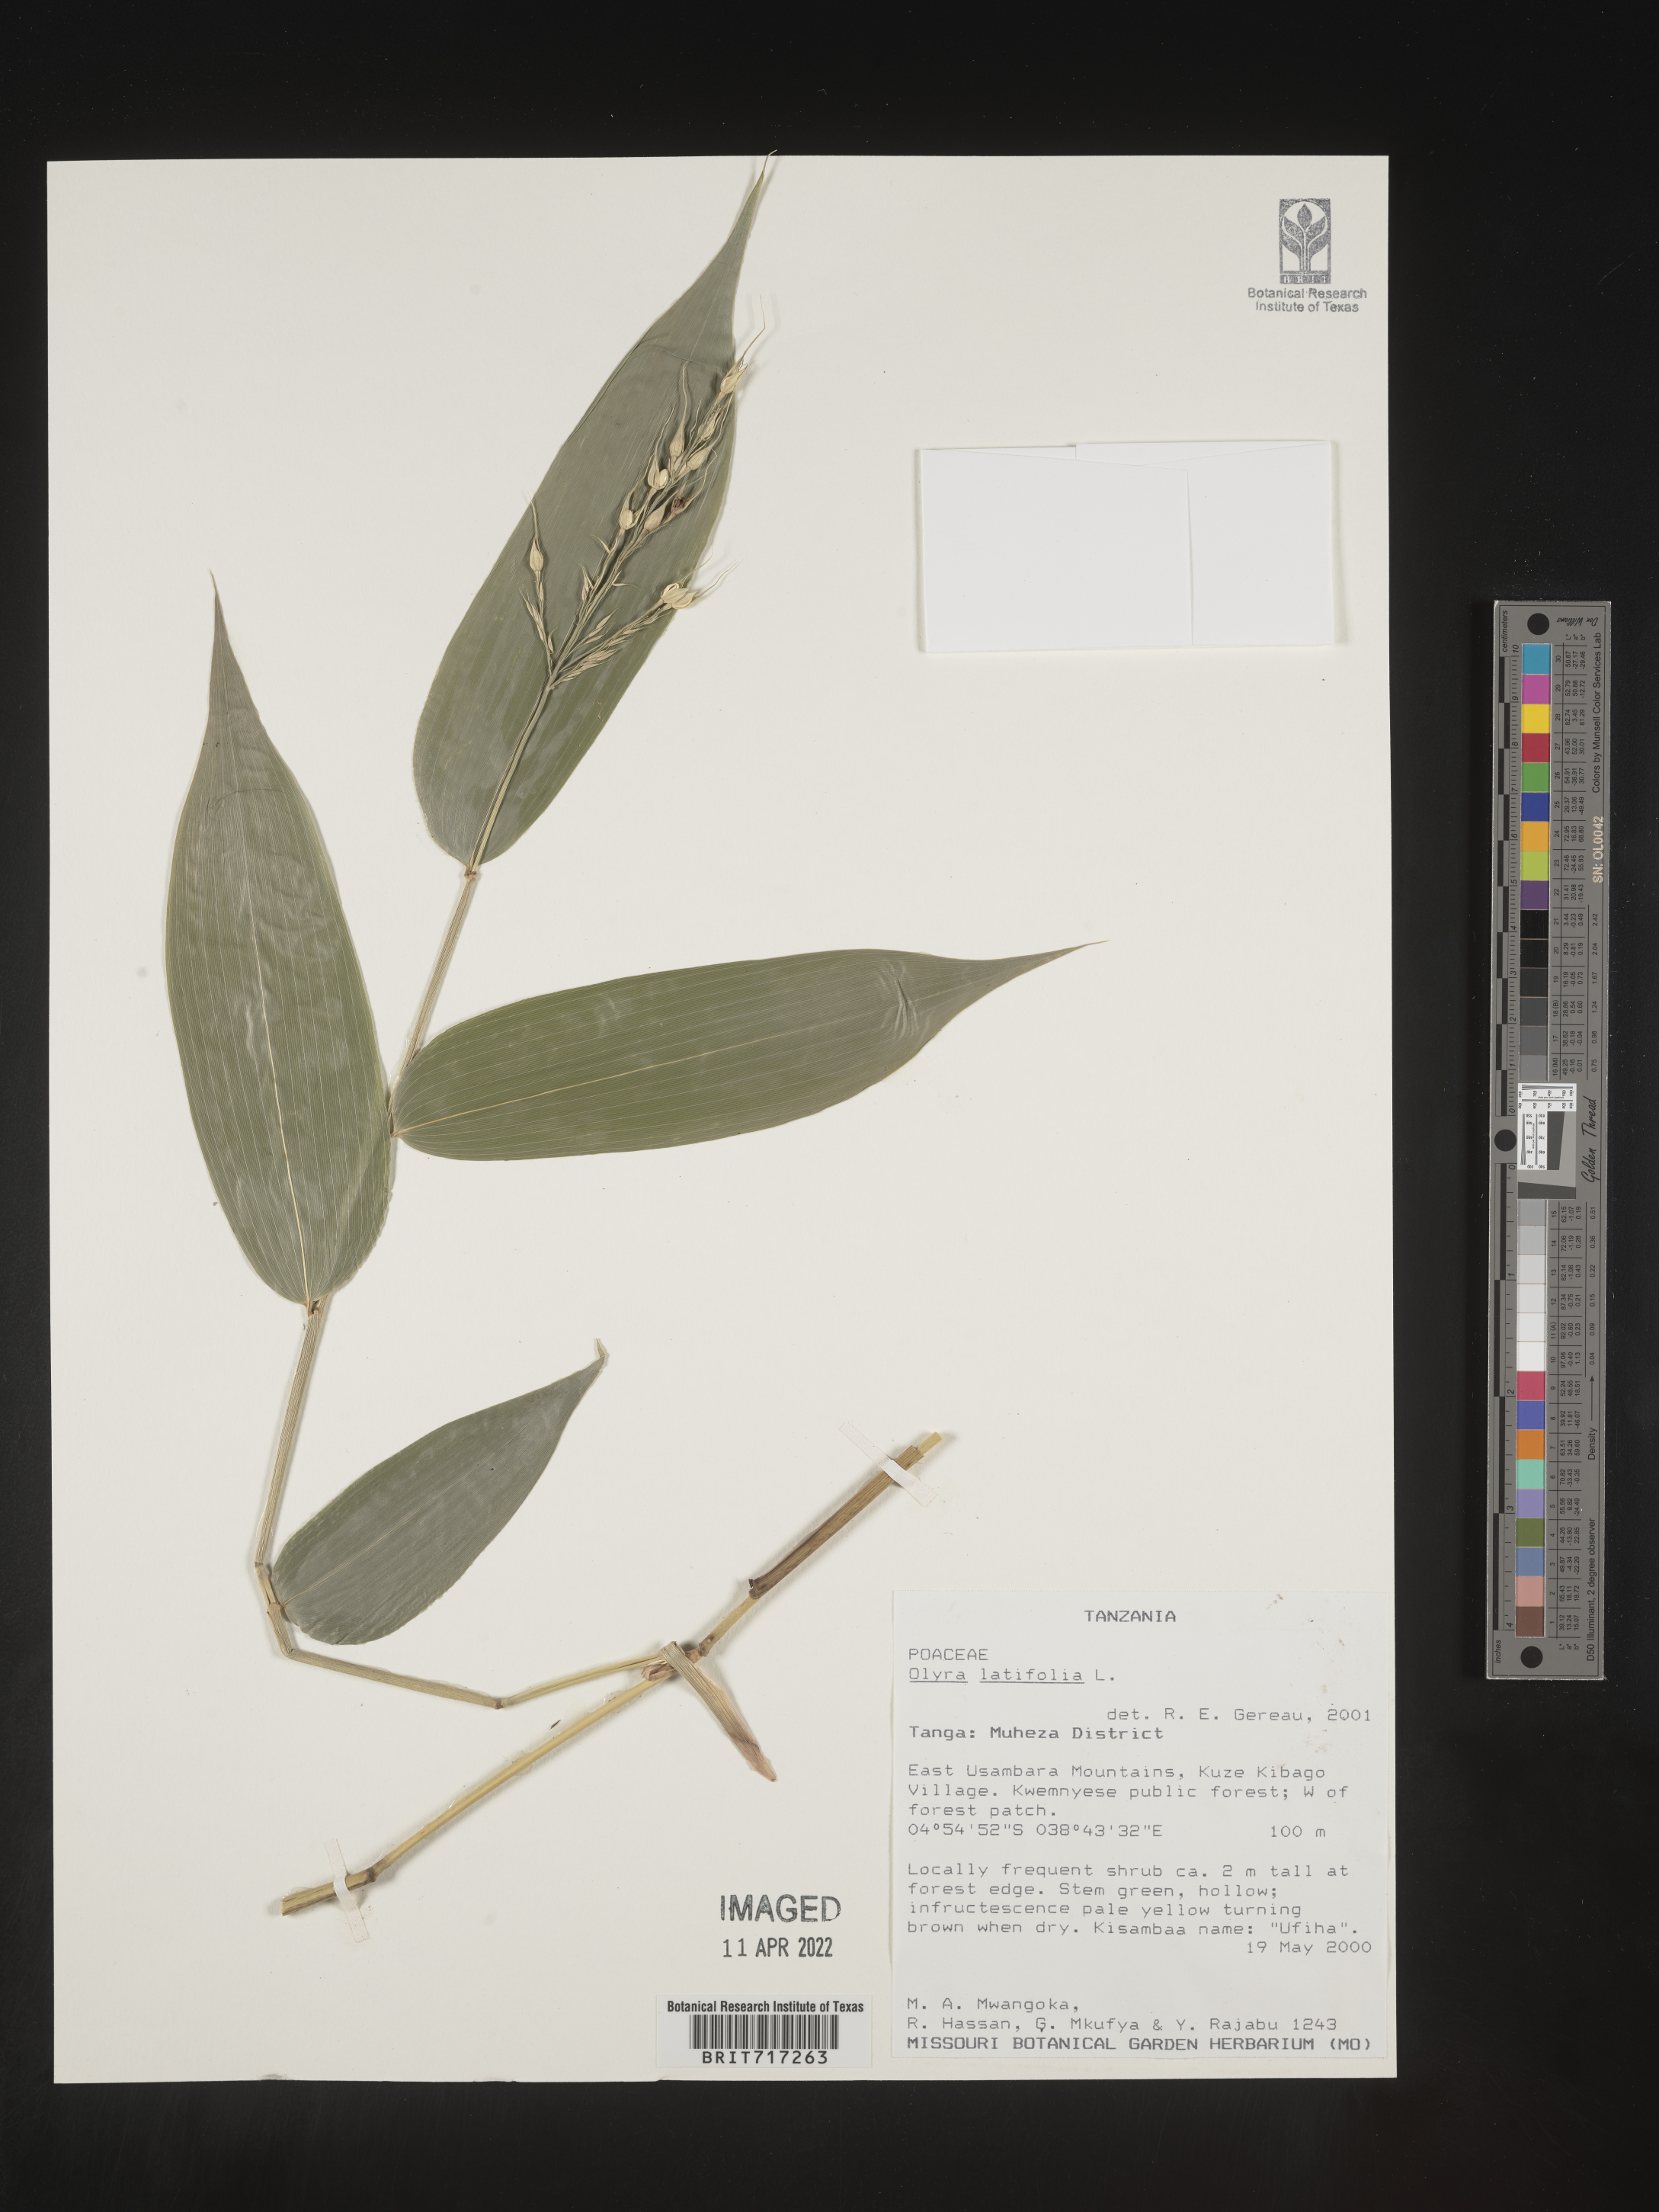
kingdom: Plantae
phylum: Tracheophyta
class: Liliopsida
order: Poales
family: Poaceae
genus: Olyra
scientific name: Olyra
